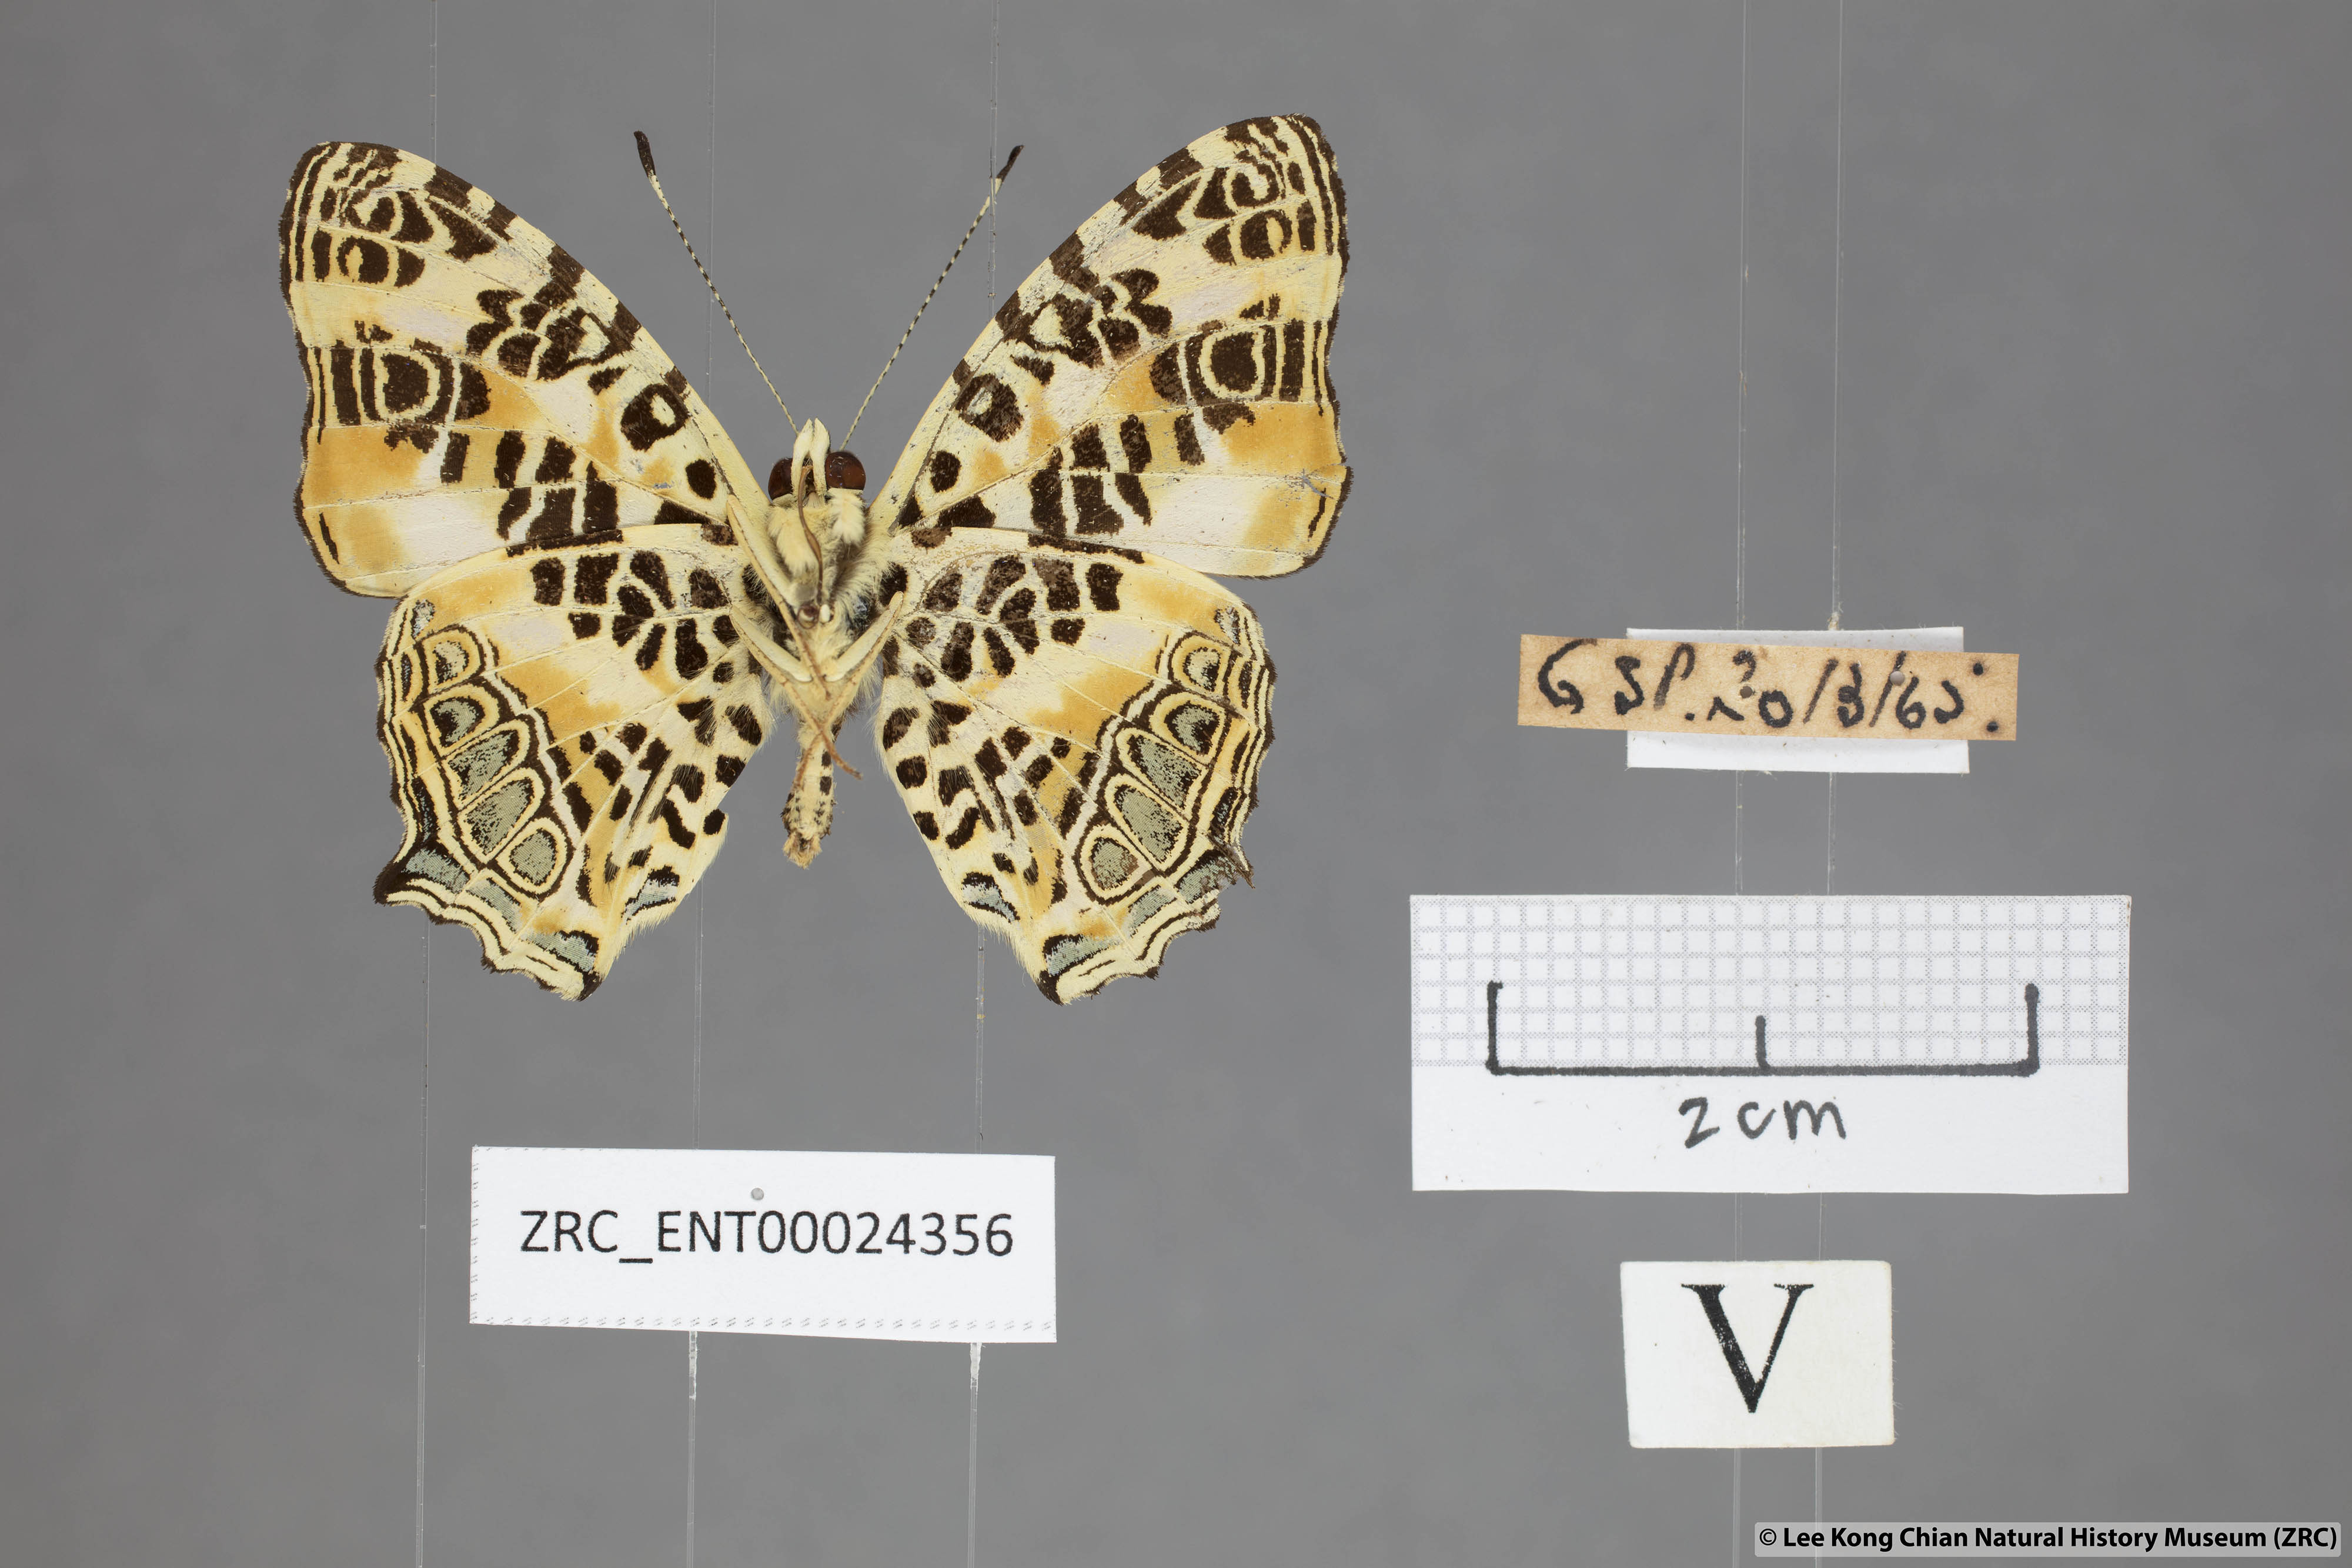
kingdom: Animalia
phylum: Arthropoda
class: Insecta
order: Lepidoptera
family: Nymphalidae
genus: Symbrenthia
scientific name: Symbrenthia hypselis
